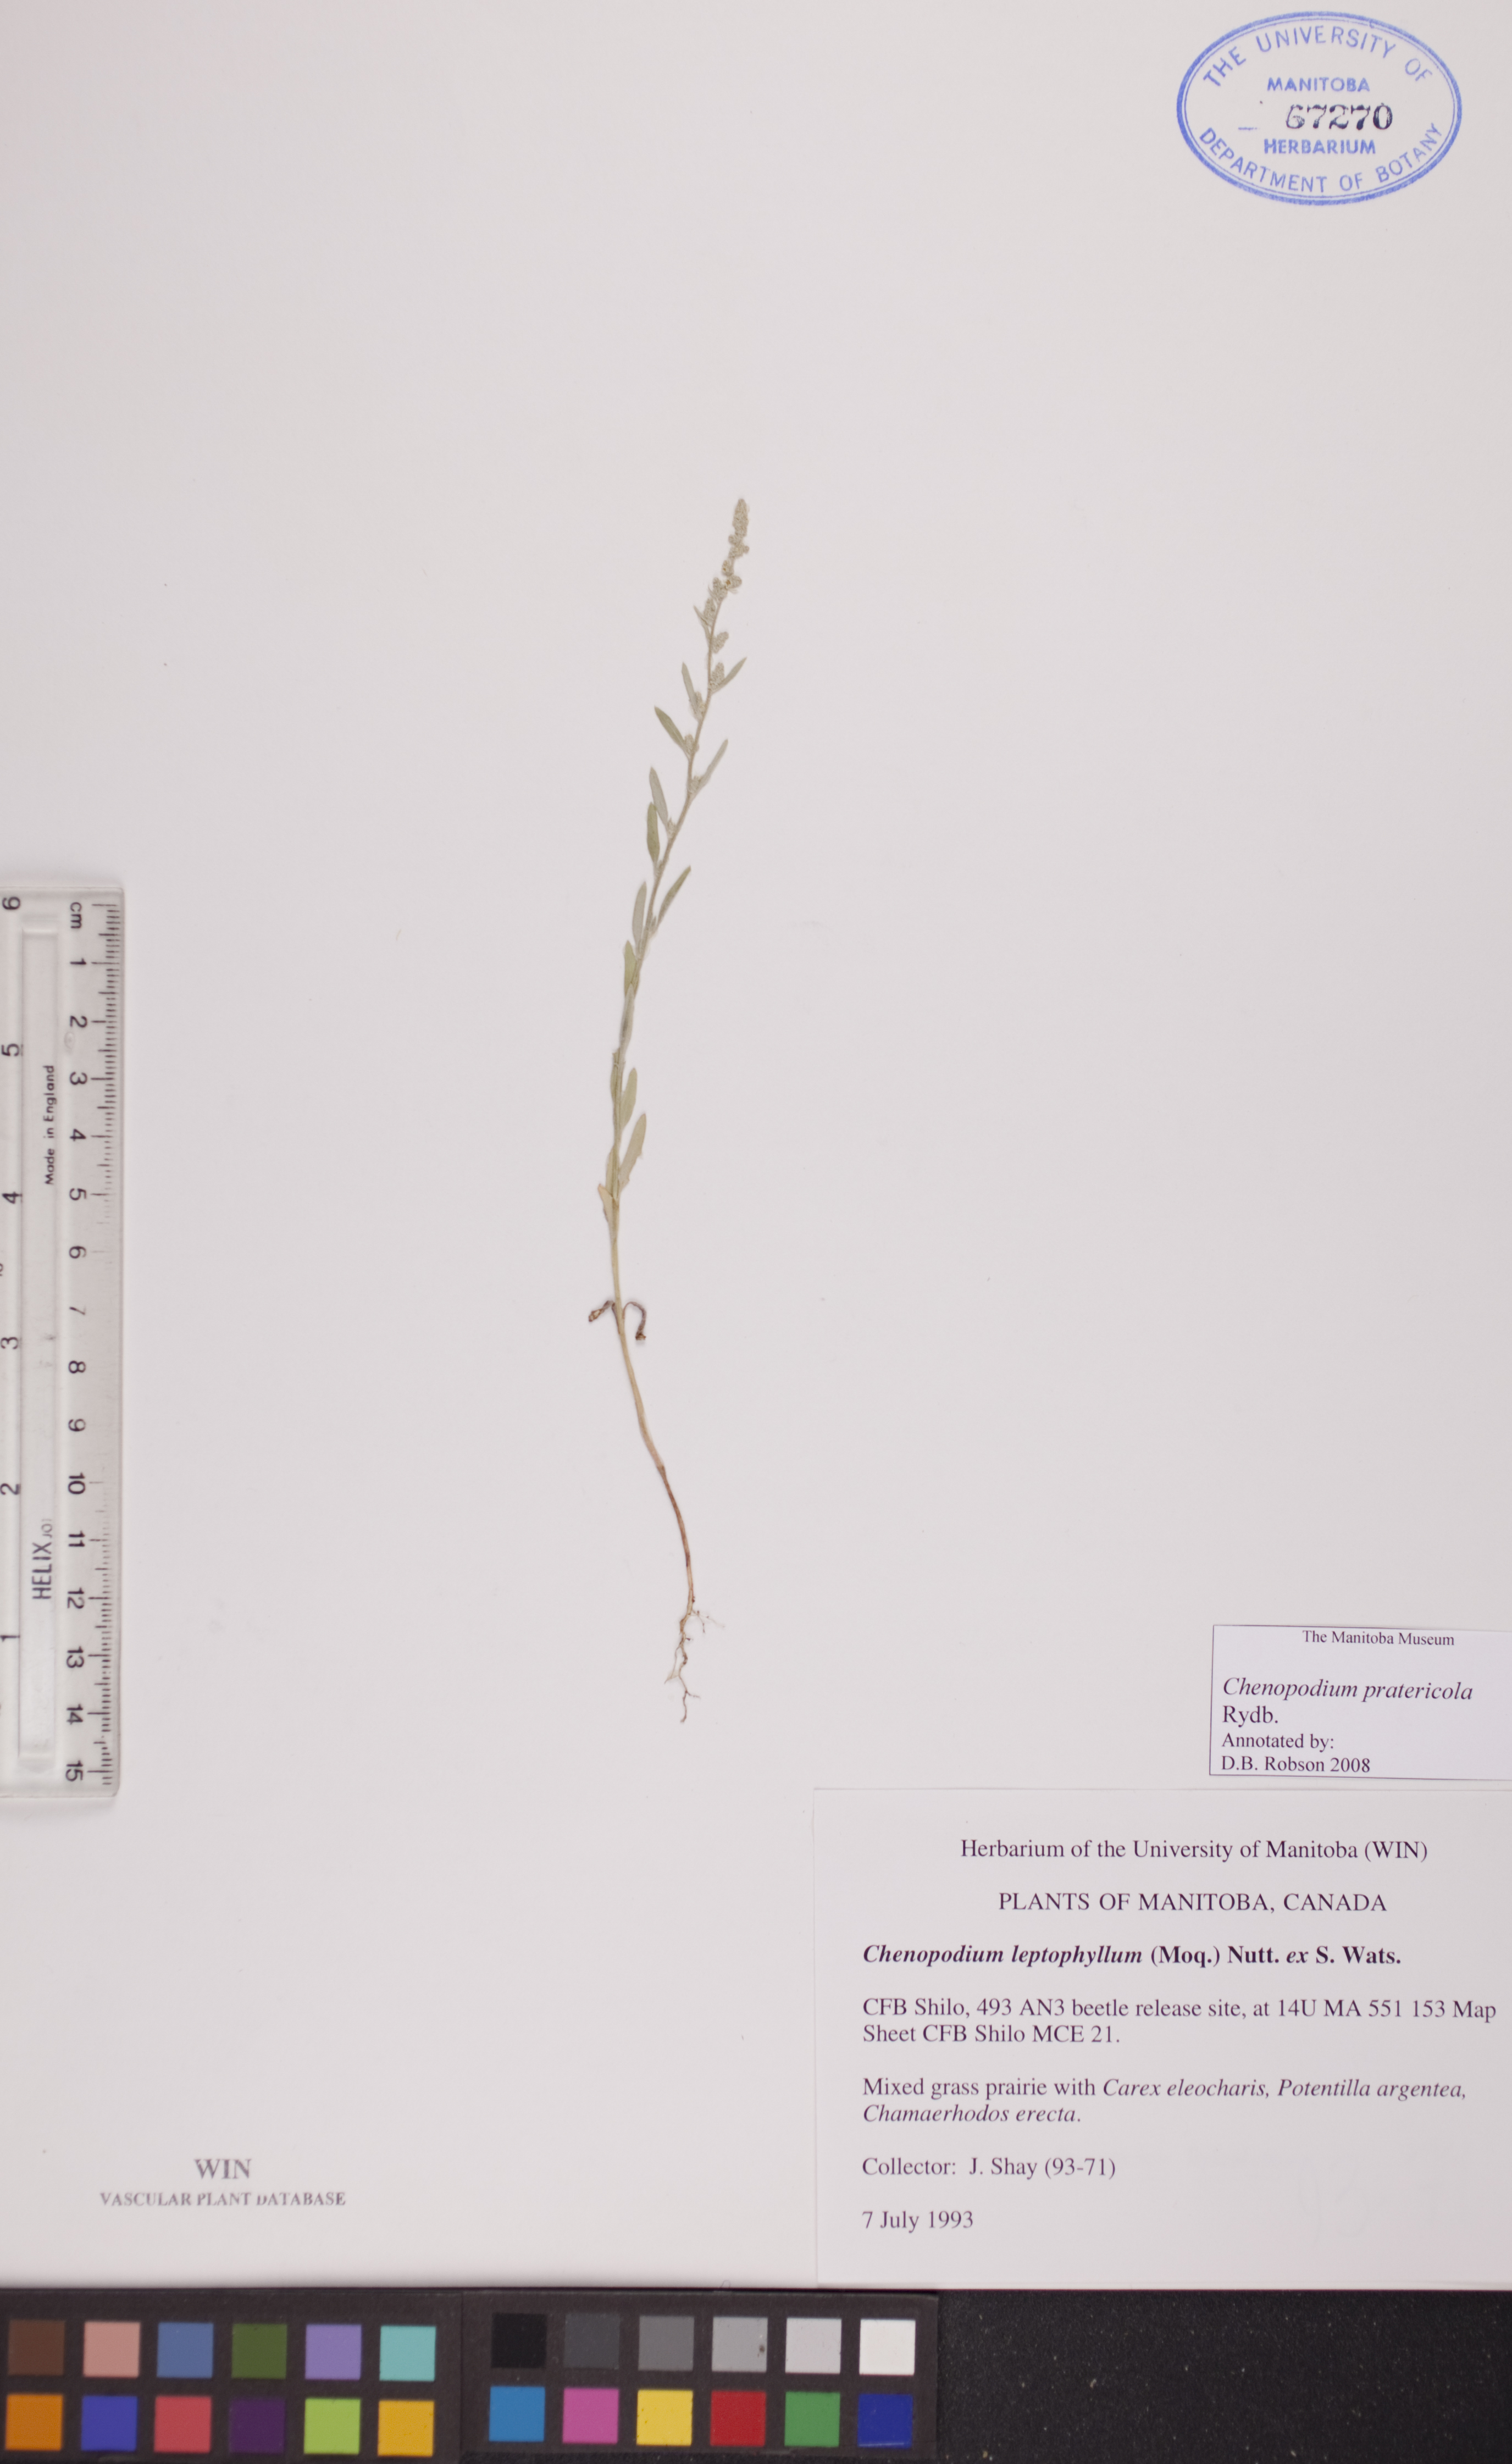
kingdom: Plantae
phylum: Tracheophyta
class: Magnoliopsida
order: Caryophyllales
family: Amaranthaceae
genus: Chenopodium
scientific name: Chenopodium pratericola
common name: Desert goosefoot
